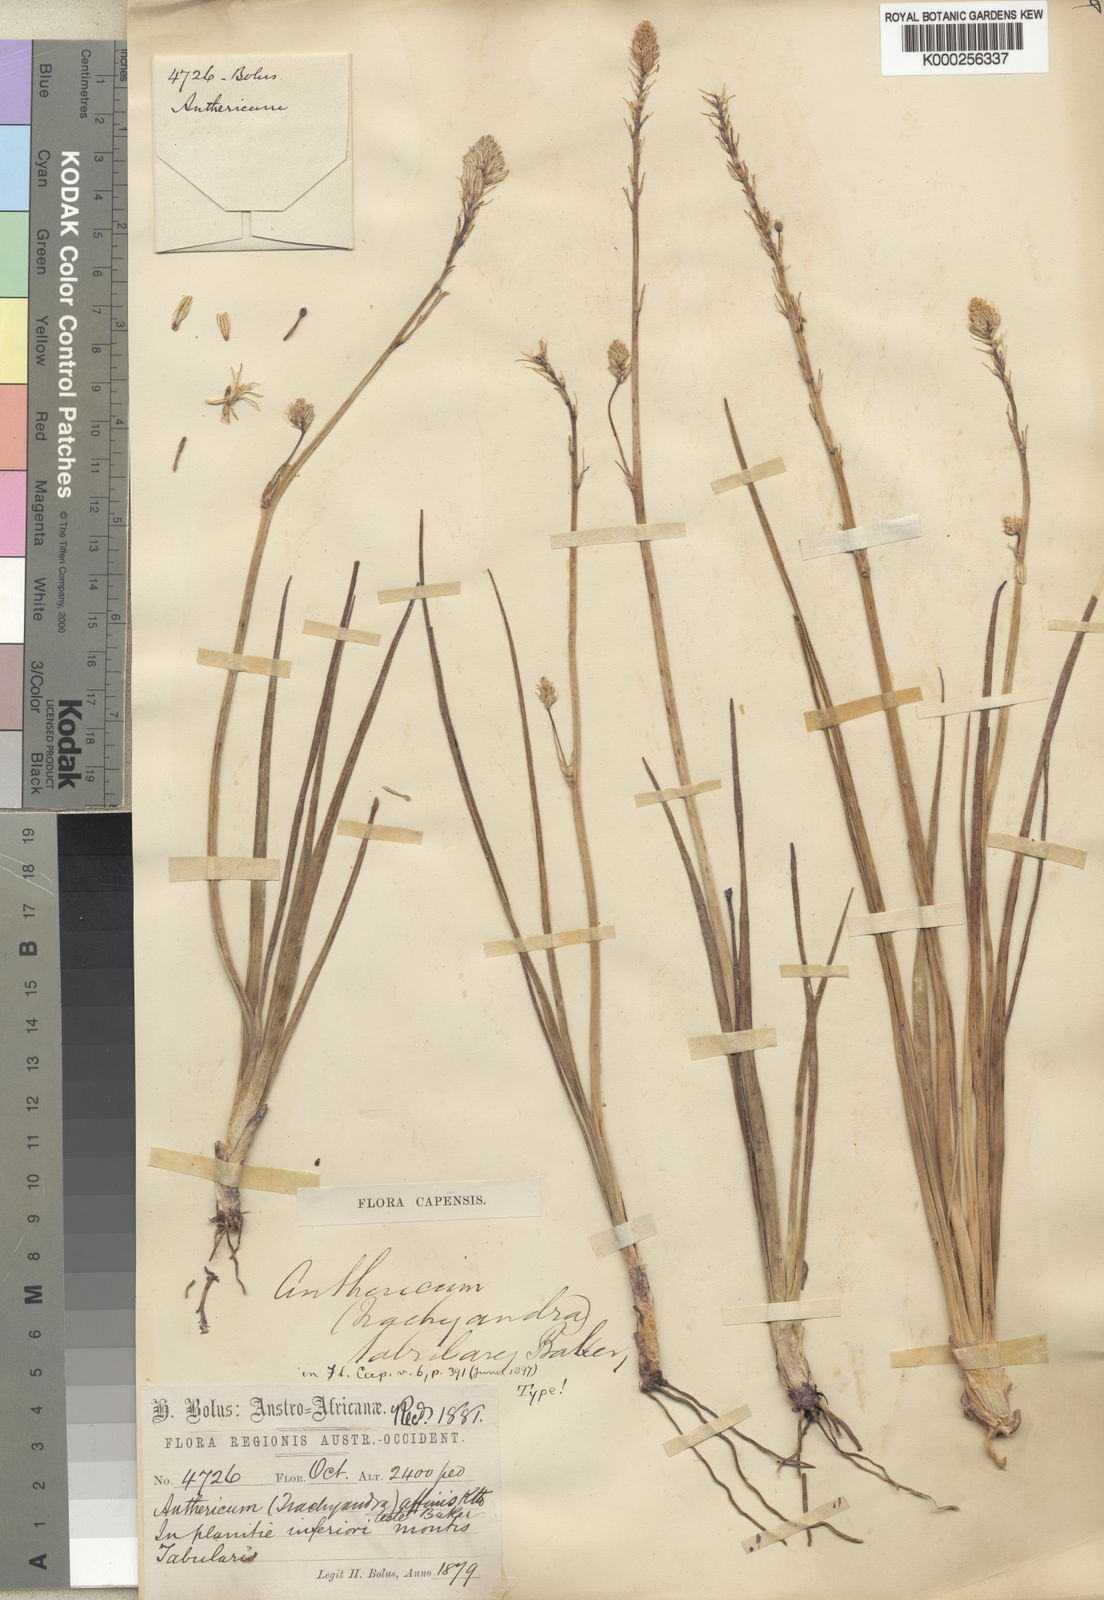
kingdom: Plantae
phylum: Tracheophyta
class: Liliopsida
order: Asparagales
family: Asphodelaceae
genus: Trachyandra
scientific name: Trachyandra tabularis
